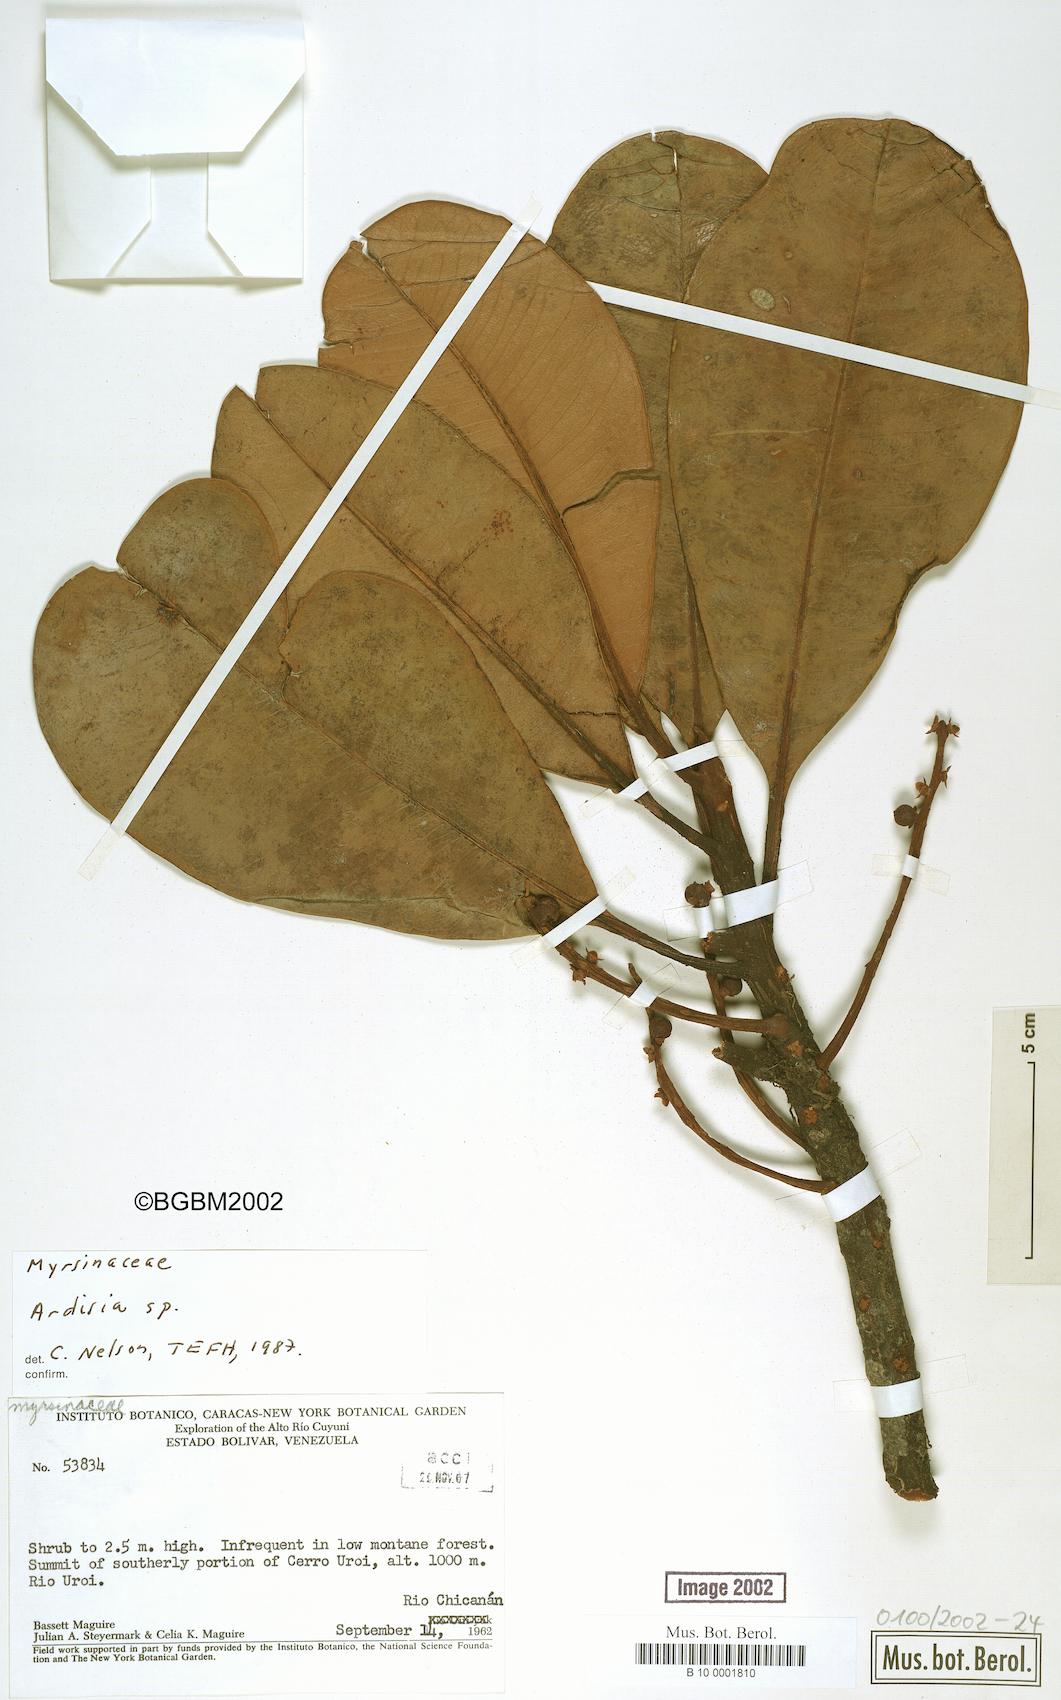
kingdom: Plantae
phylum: Tracheophyta
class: Magnoliopsida
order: Ericales
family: Primulaceae
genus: Ardisia
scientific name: Ardisia
